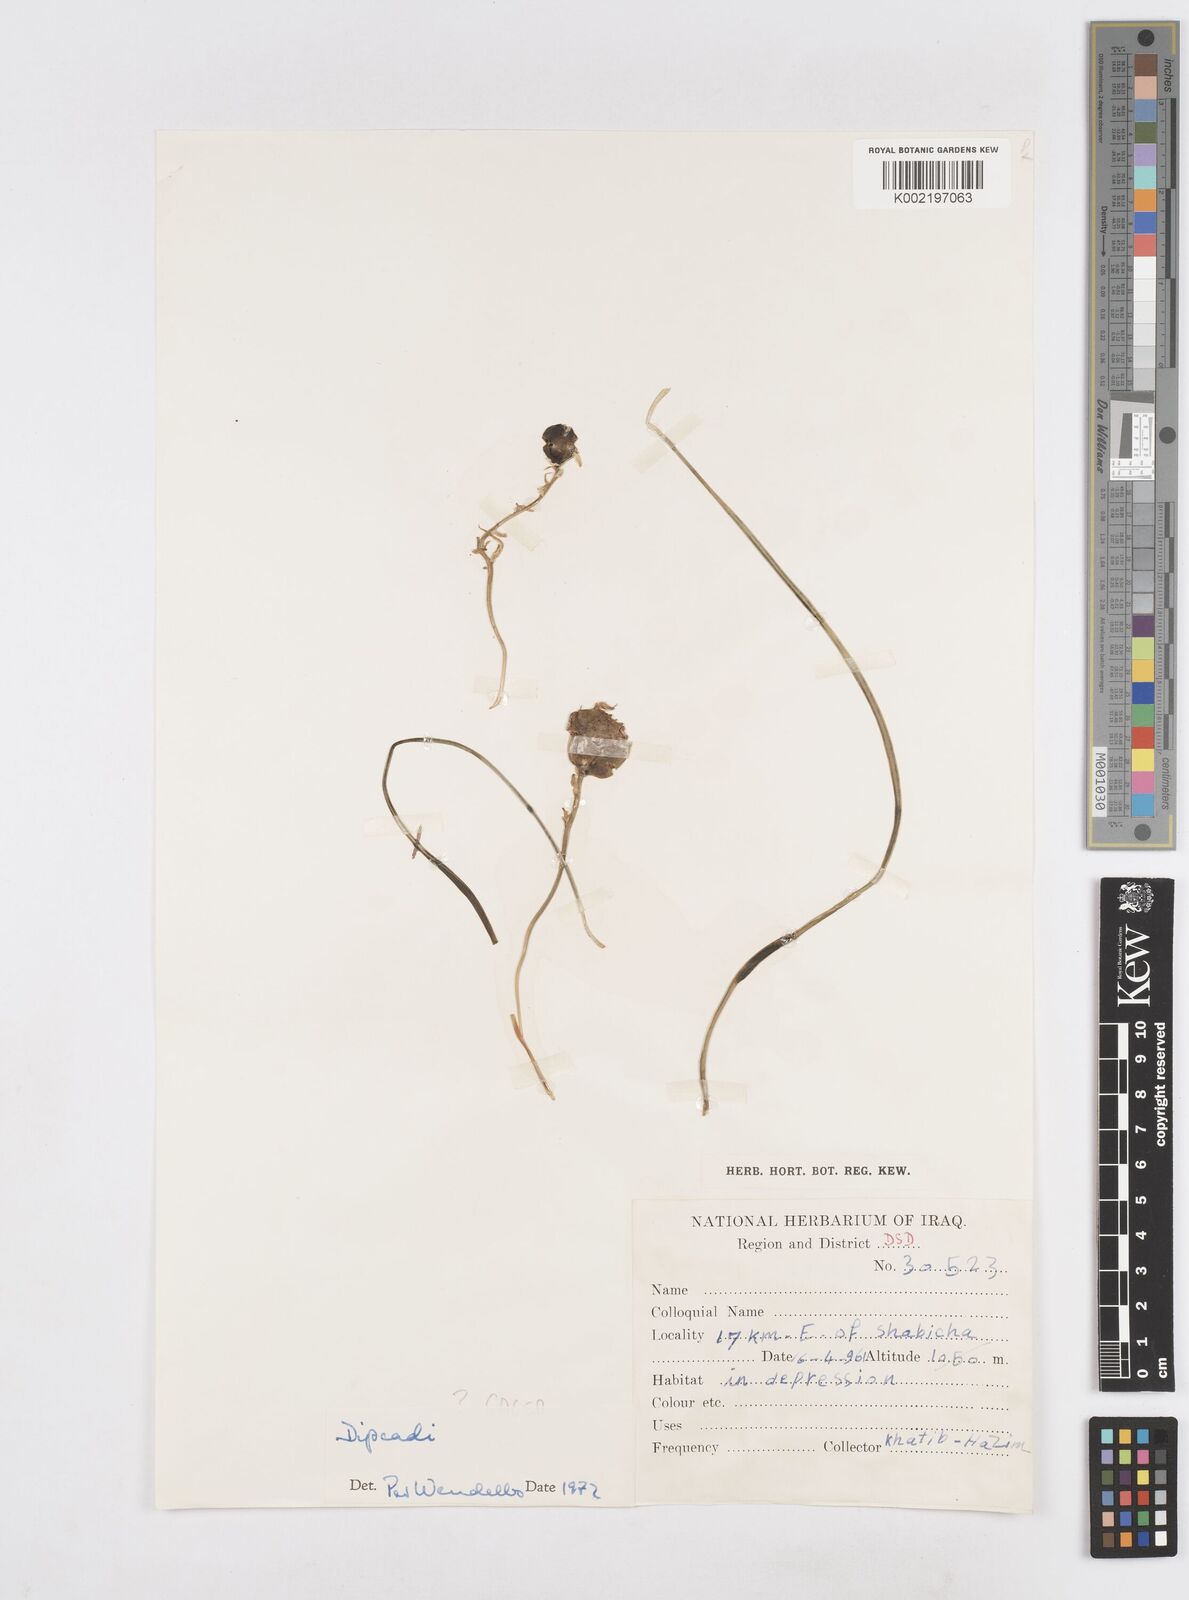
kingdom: Plantae
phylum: Tracheophyta
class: Liliopsida
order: Asparagales
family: Asparagaceae
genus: Dipcadi
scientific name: Dipcadi susianum
